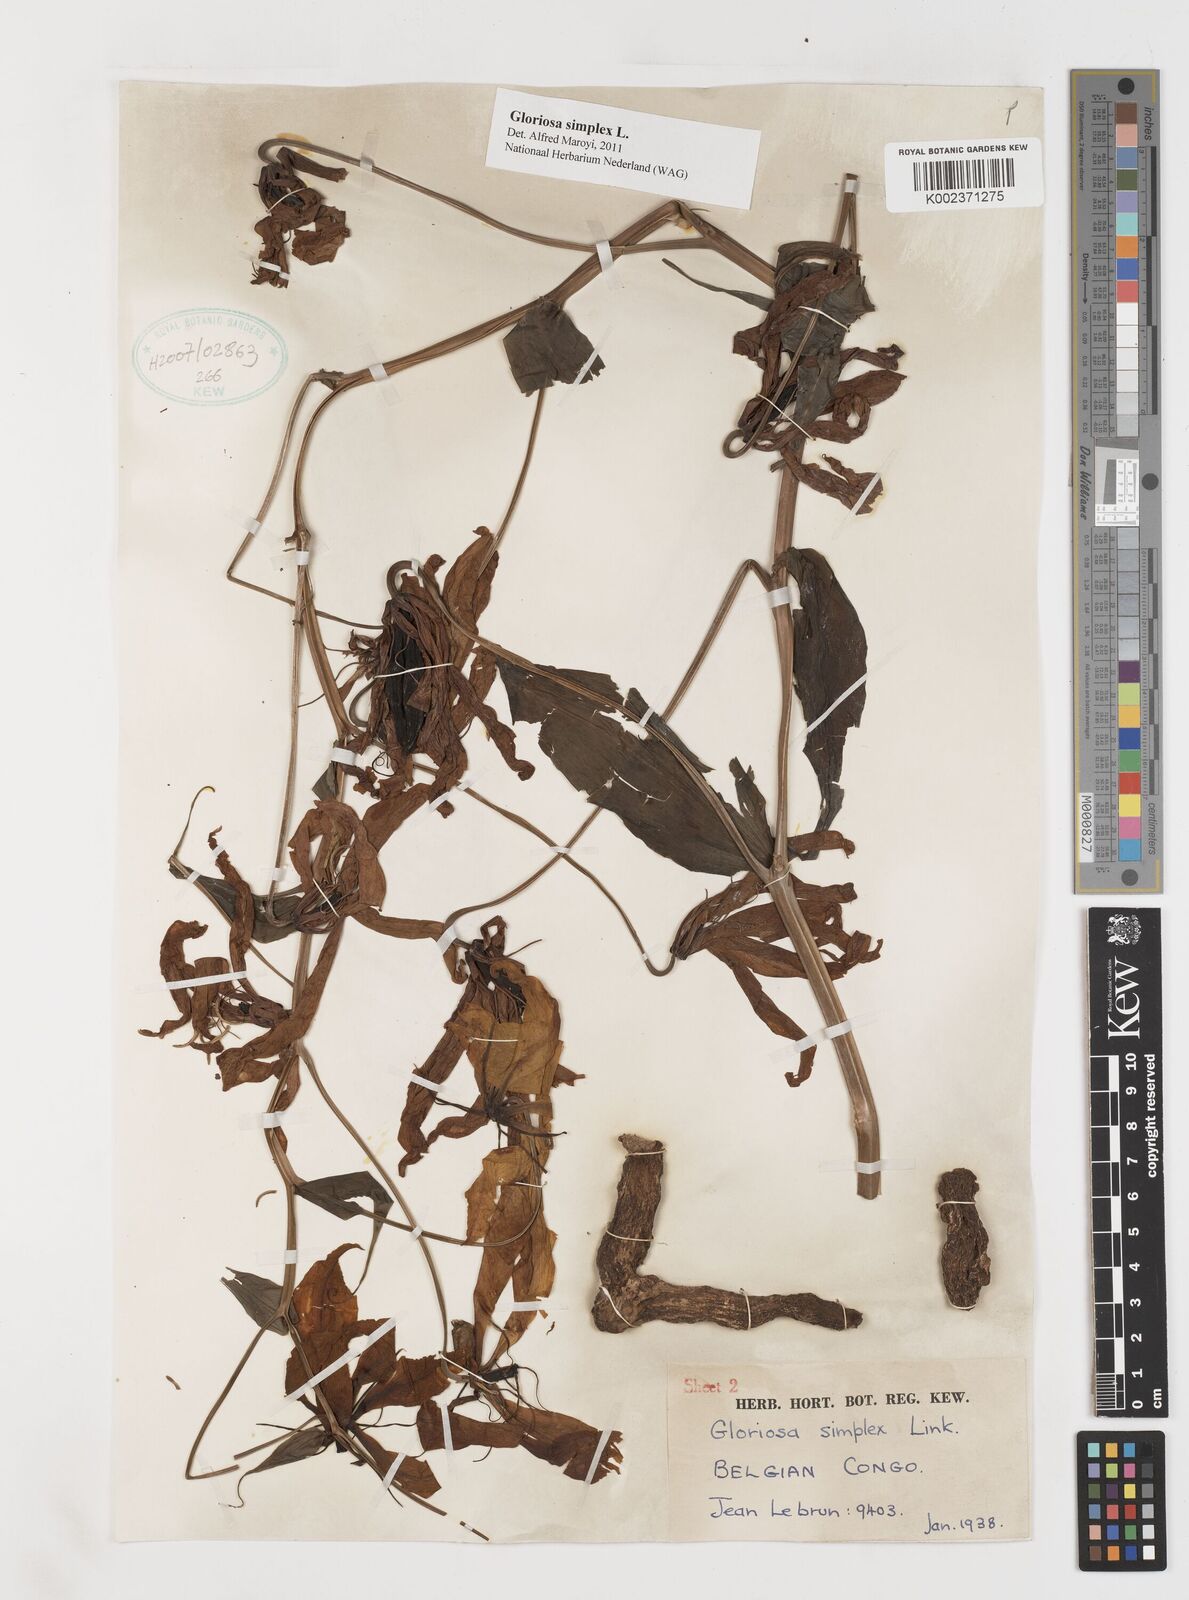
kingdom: Plantae
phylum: Tracheophyta
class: Liliopsida
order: Liliales
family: Colchicaceae
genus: Gloriosa
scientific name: Gloriosa simplex
